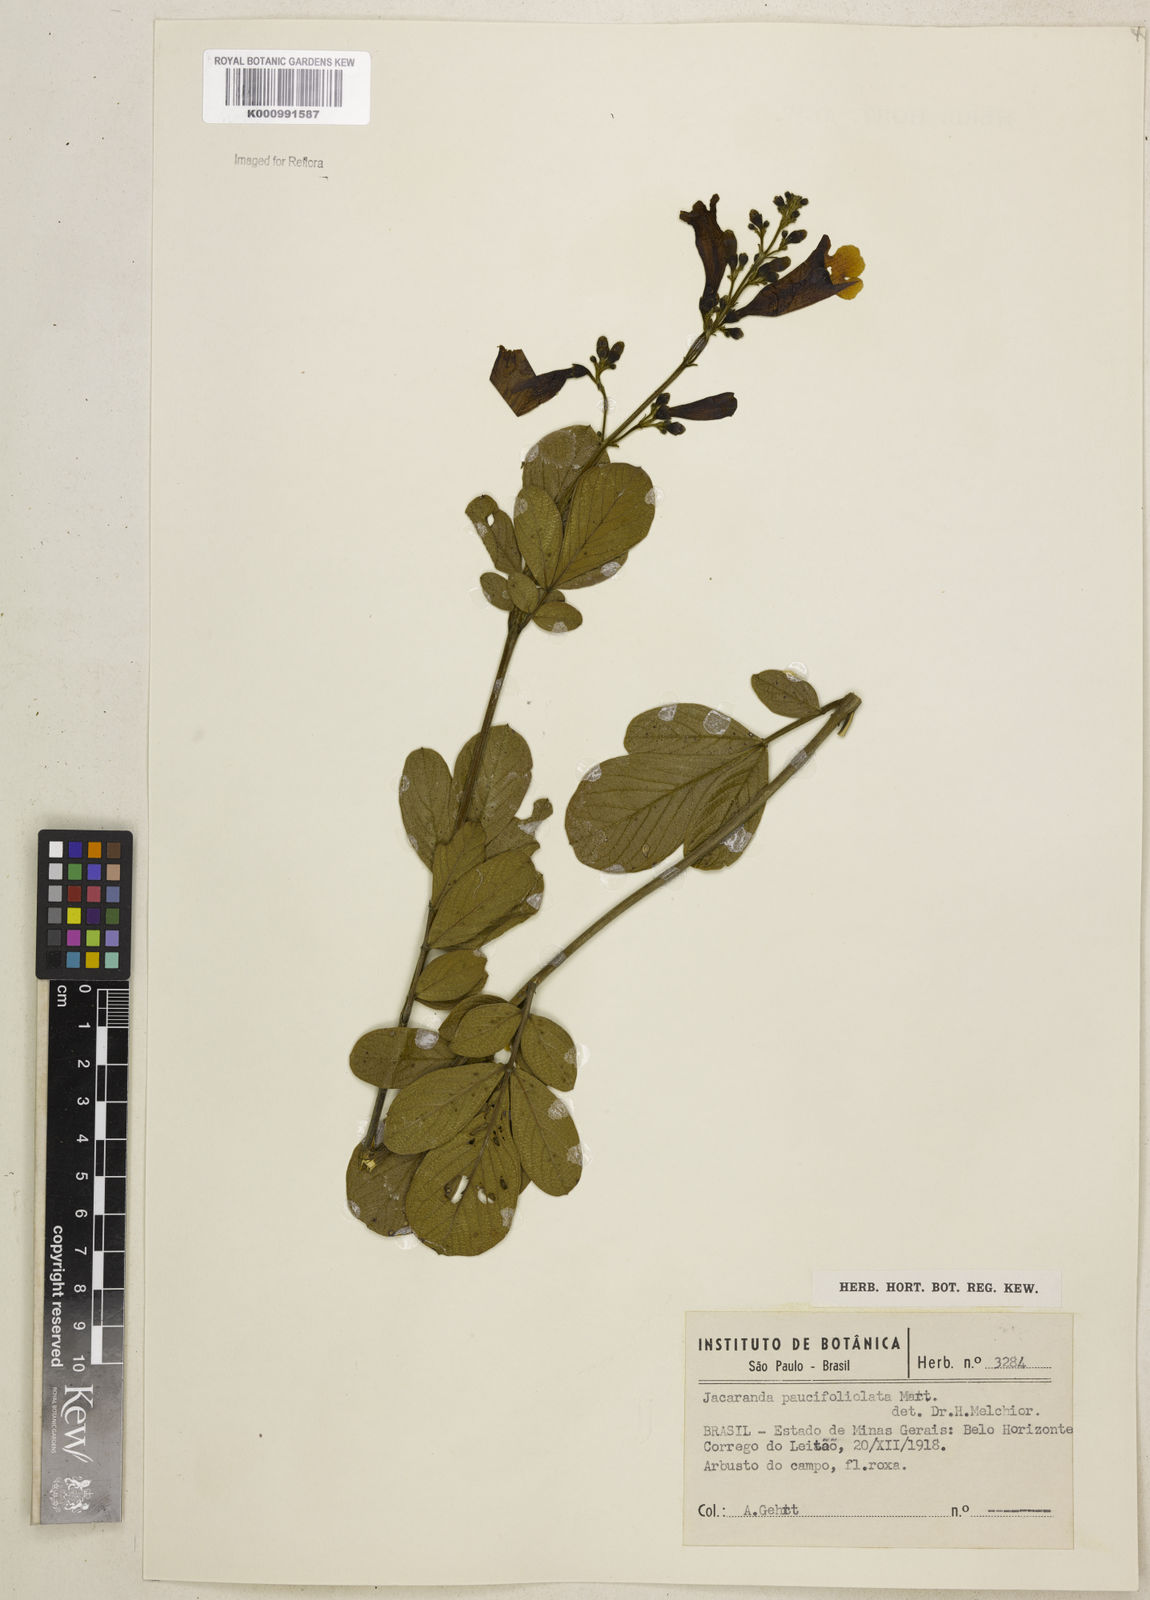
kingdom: Plantae
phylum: Tracheophyta
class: Magnoliopsida
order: Lamiales
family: Bignoniaceae
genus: Jacaranda
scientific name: Jacaranda
